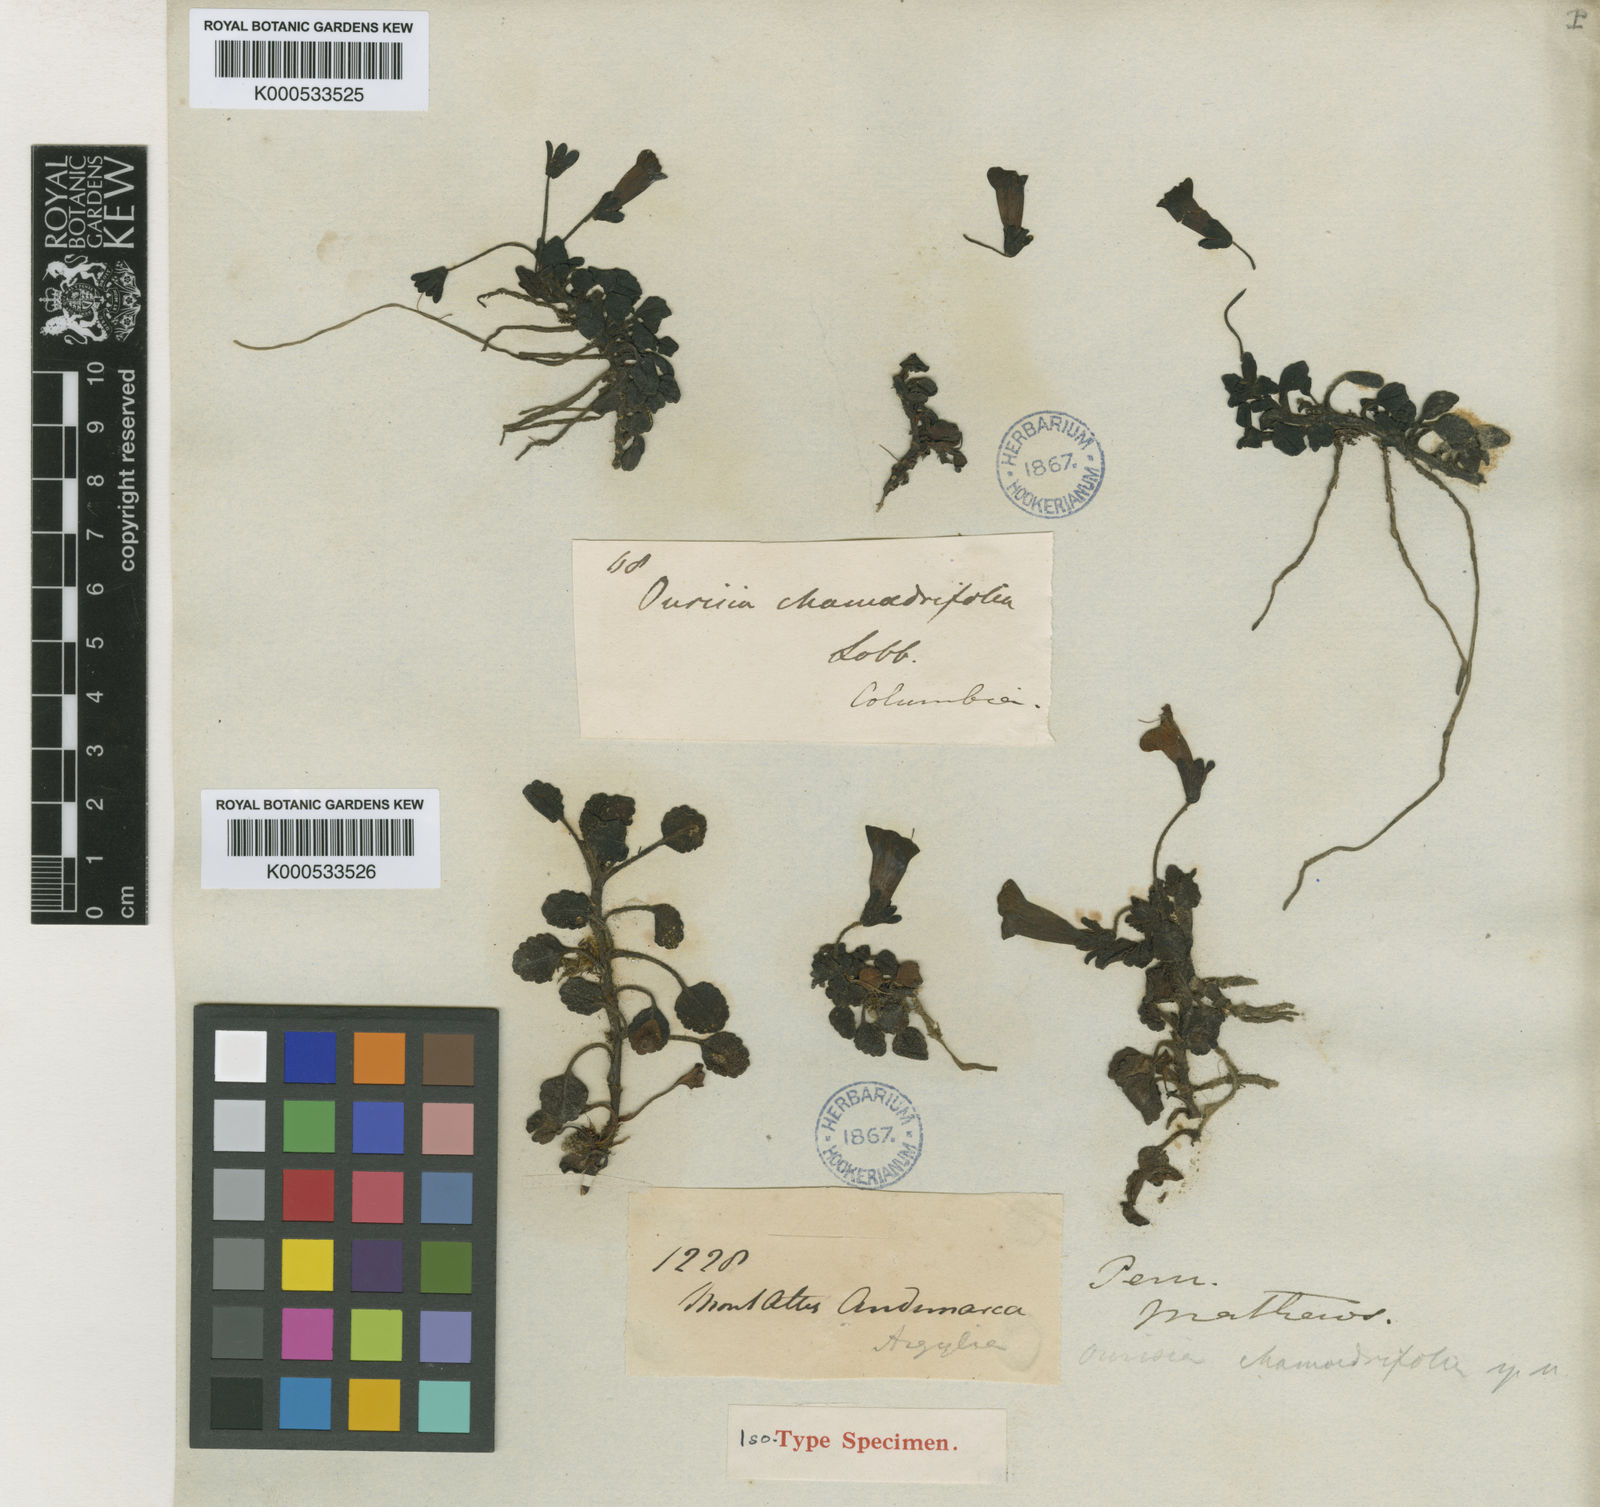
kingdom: Plantae
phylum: Tracheophyta
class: Magnoliopsida
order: Lamiales
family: Plantaginaceae
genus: Ourisia
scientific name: Ourisia chamaedrifolia
